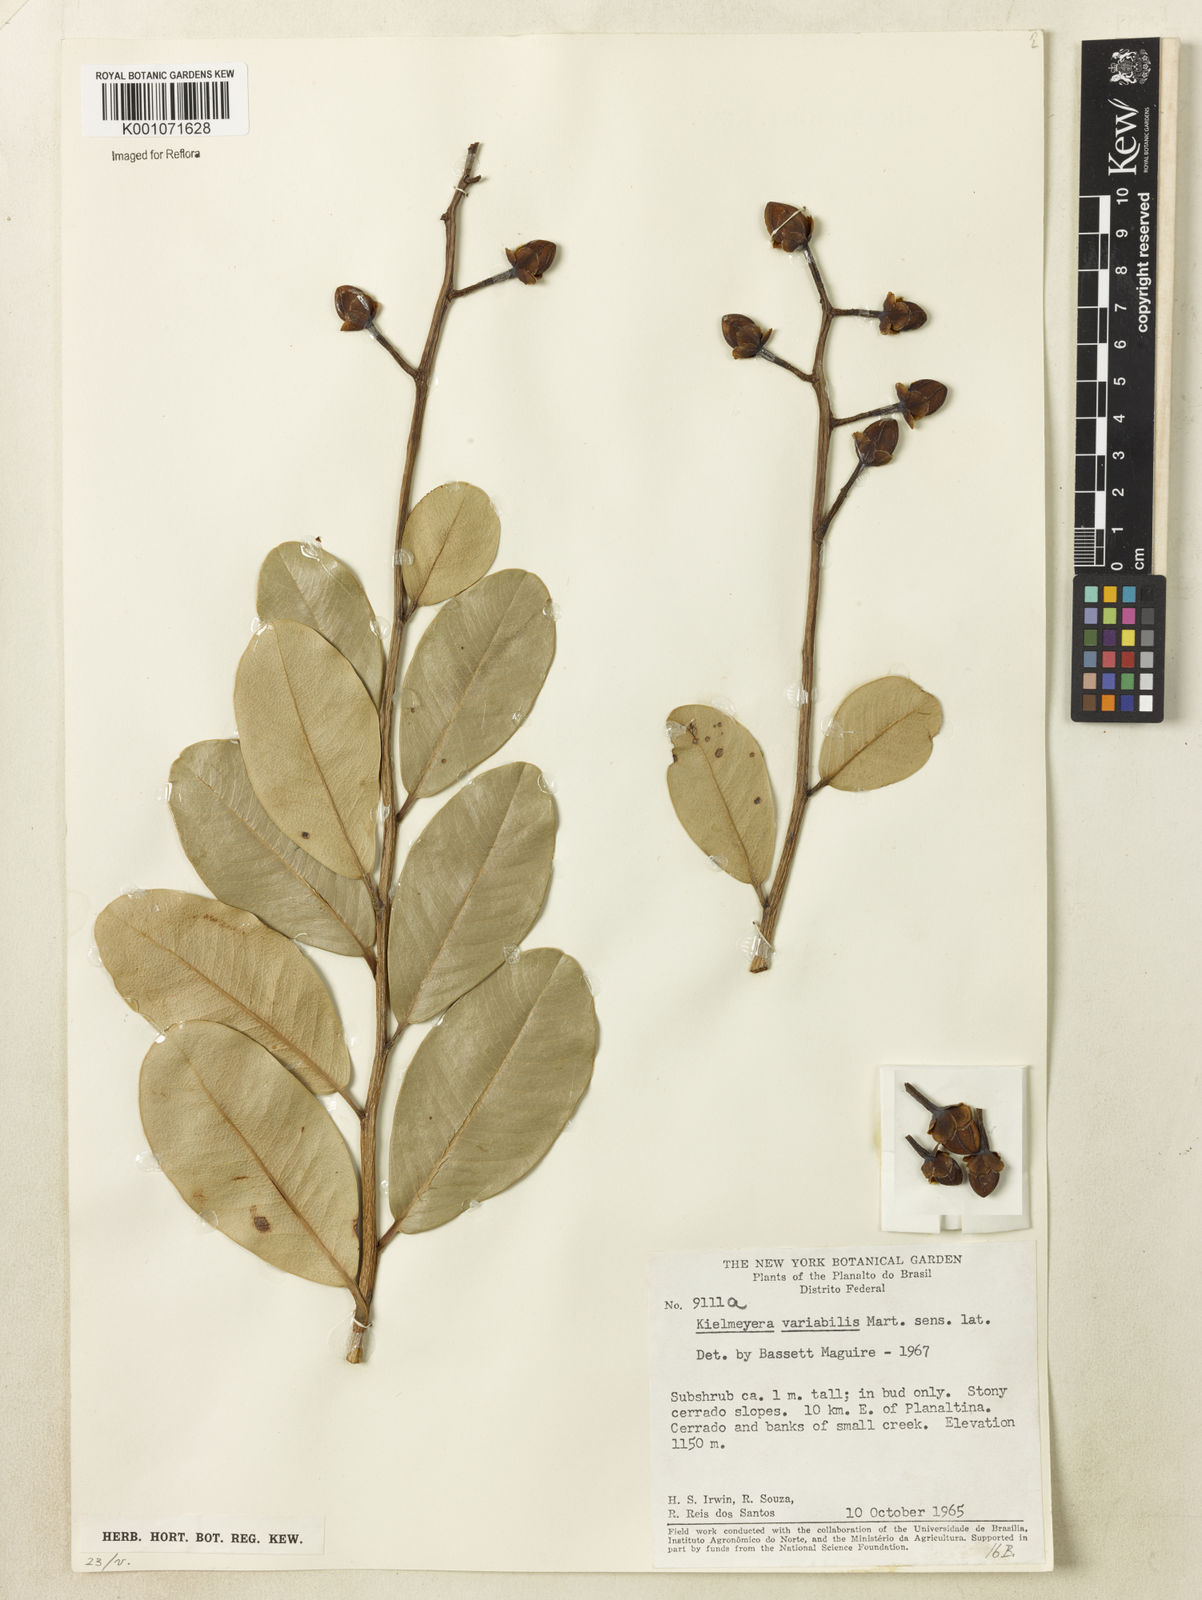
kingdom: Plantae
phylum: Tracheophyta
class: Magnoliopsida
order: Malpighiales
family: Calophyllaceae
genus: Kielmeyera
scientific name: Kielmeyera variabilis
